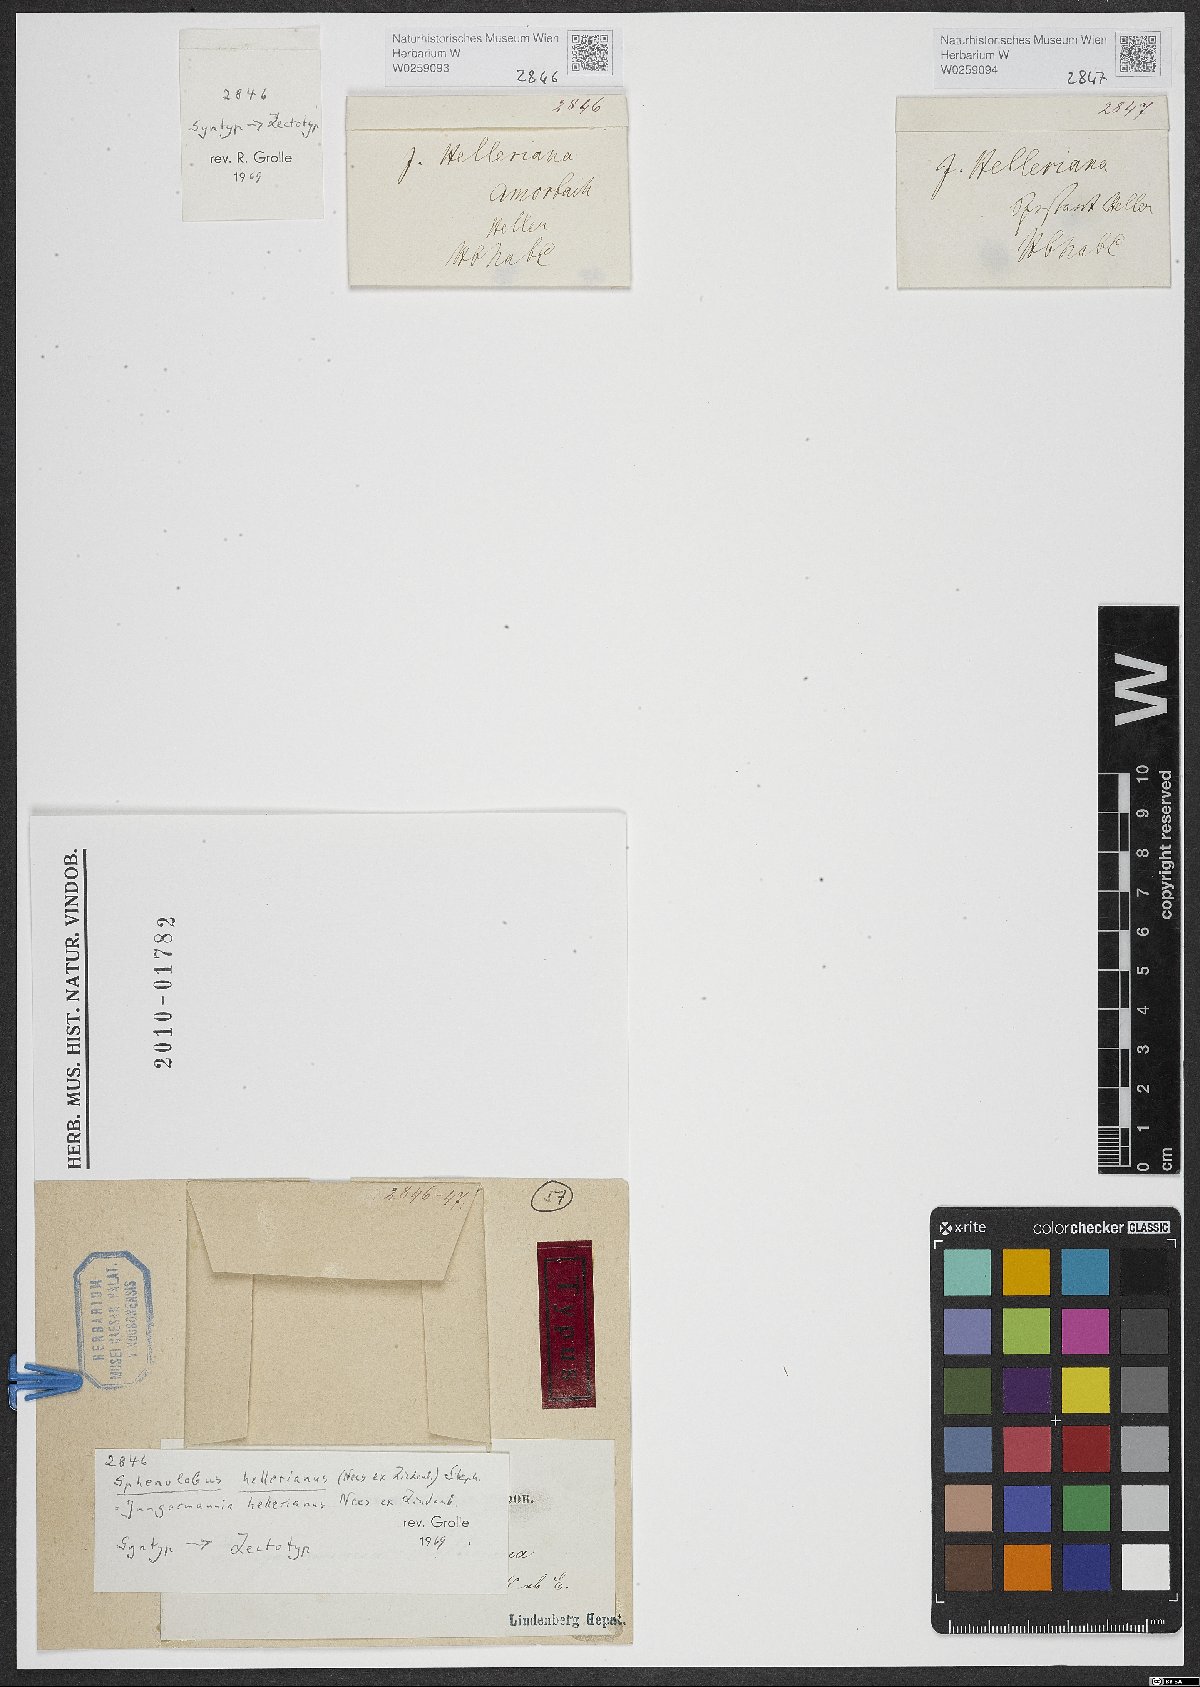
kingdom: Plantae
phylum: Marchantiophyta
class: Jungermanniopsida
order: Jungermanniales
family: Anastrophyllaceae
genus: Crossocalyx
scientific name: Crossocalyx hellerianus
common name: Heller's notchwort
